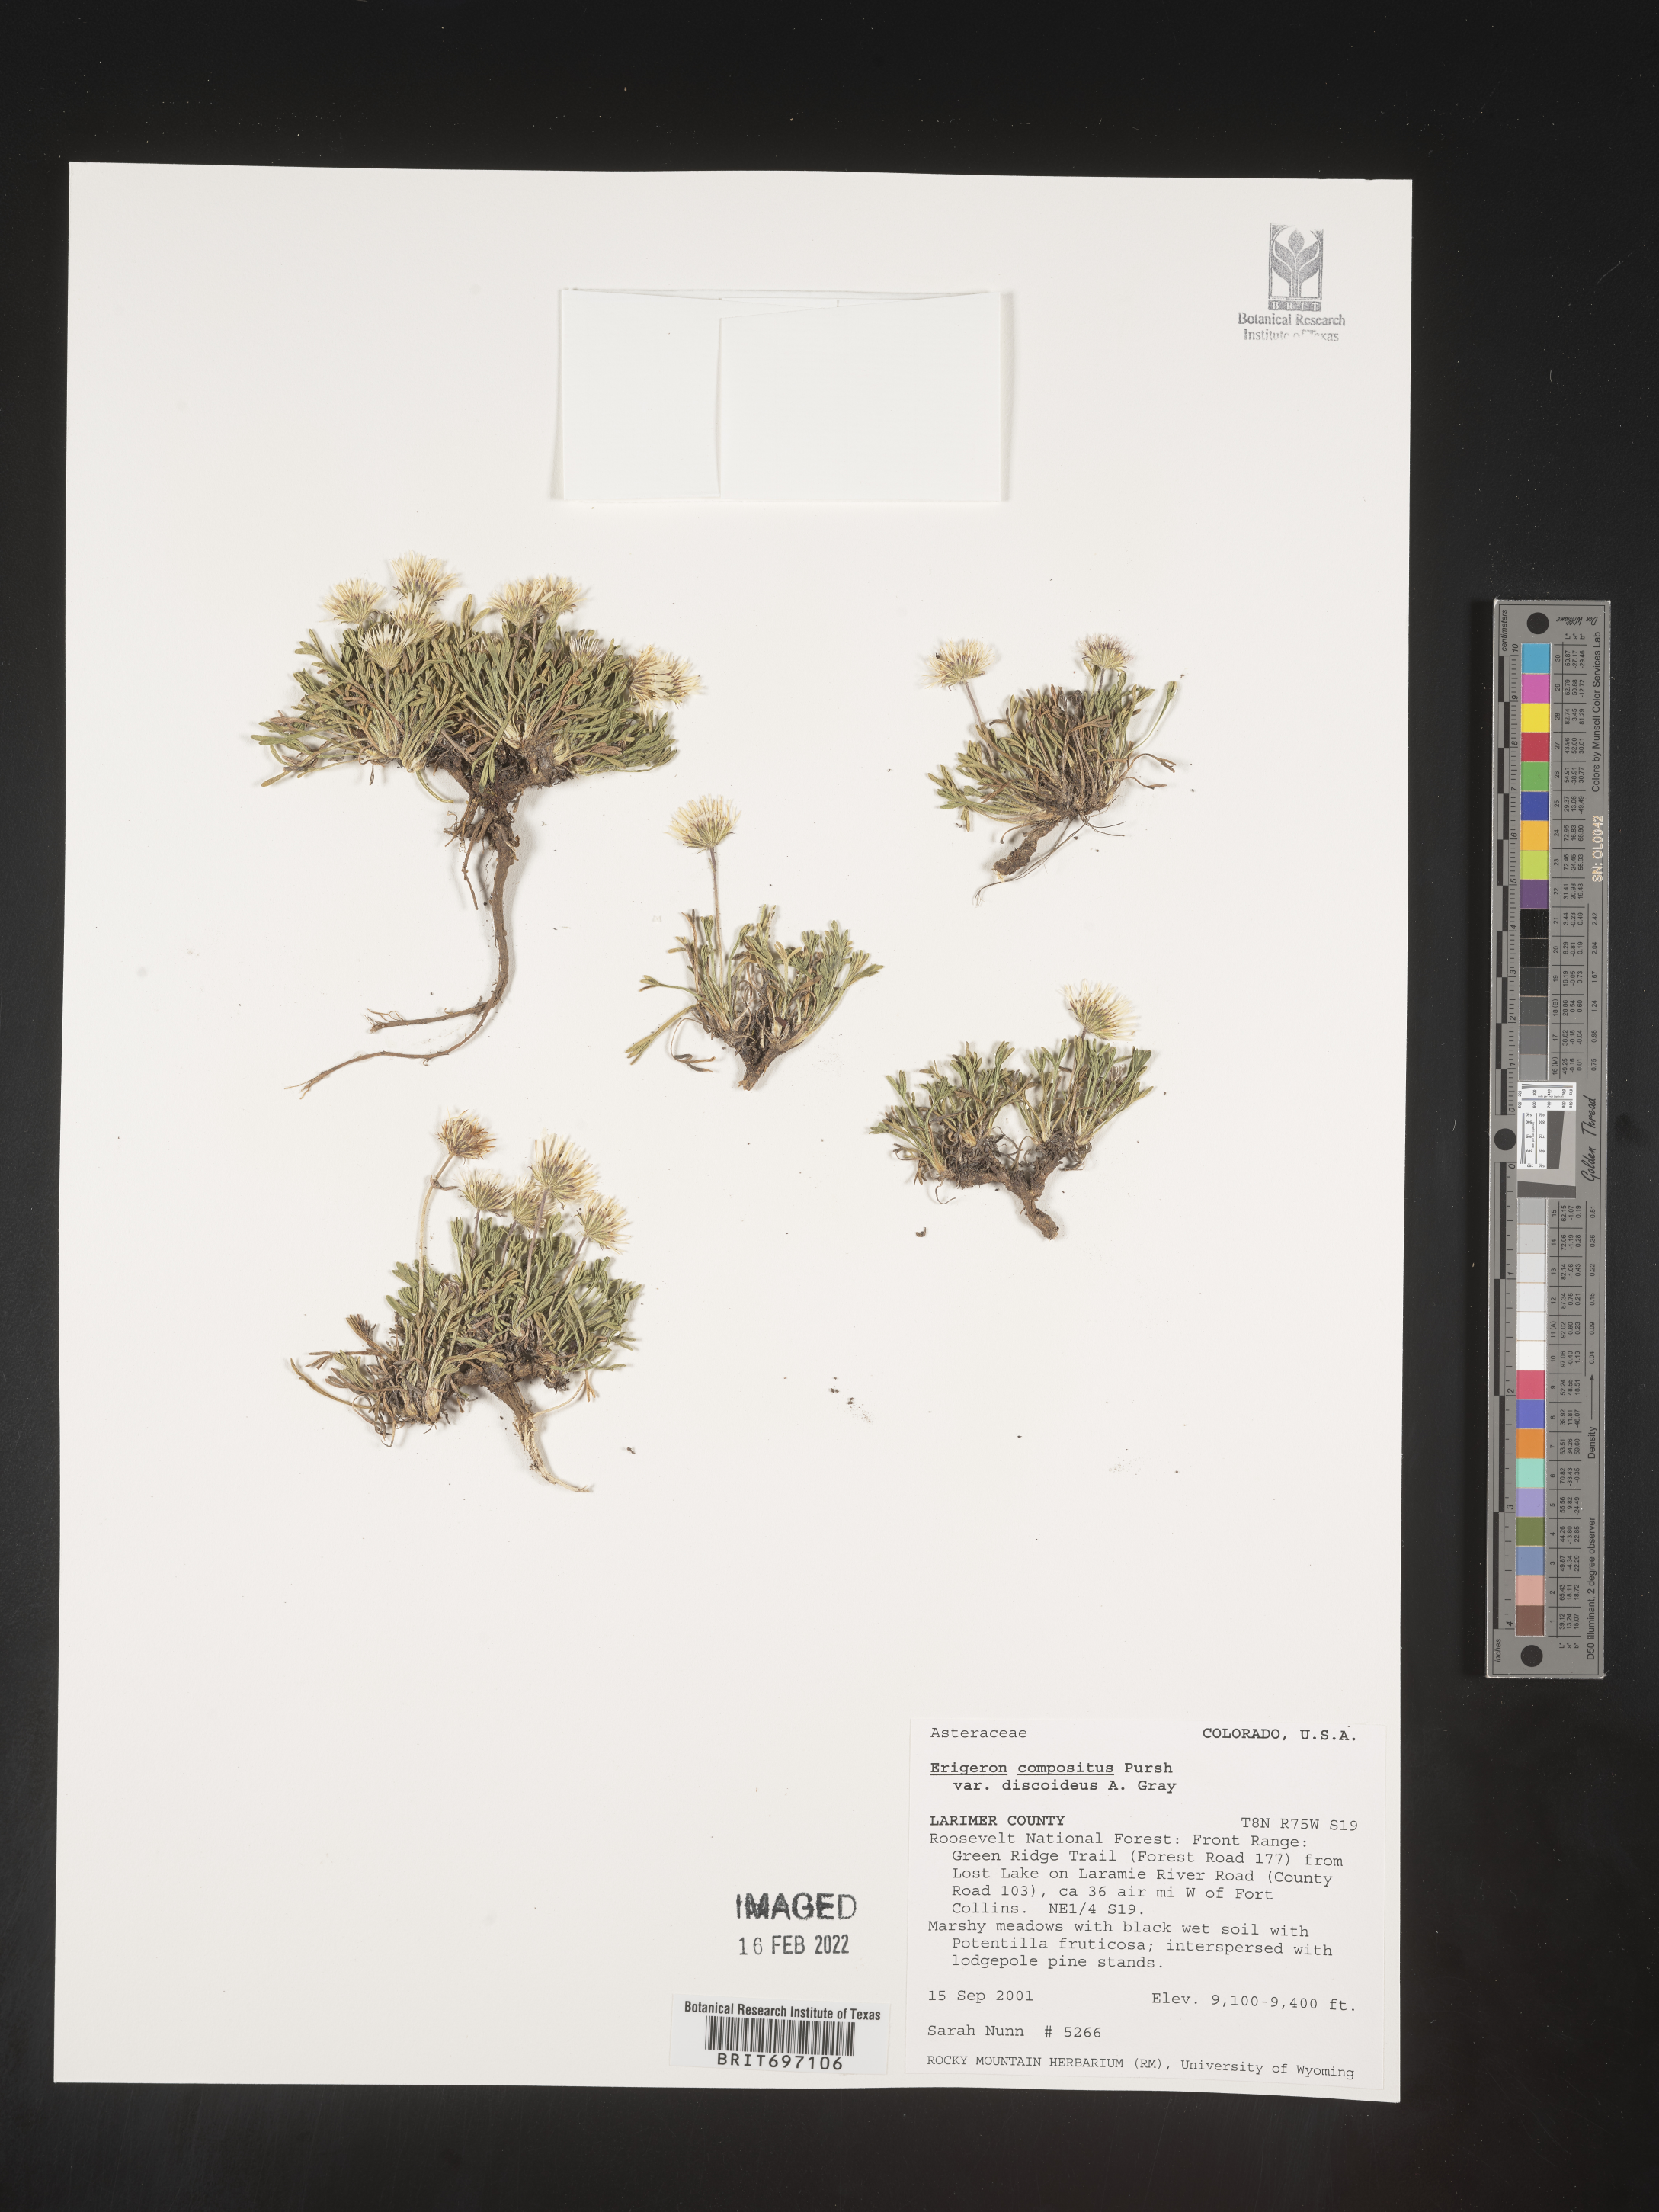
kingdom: Plantae
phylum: Tracheophyta
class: Magnoliopsida
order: Asterales
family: Asteraceae
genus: Erigeron
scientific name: Erigeron compositus
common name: Dwarf mountain fleabane
